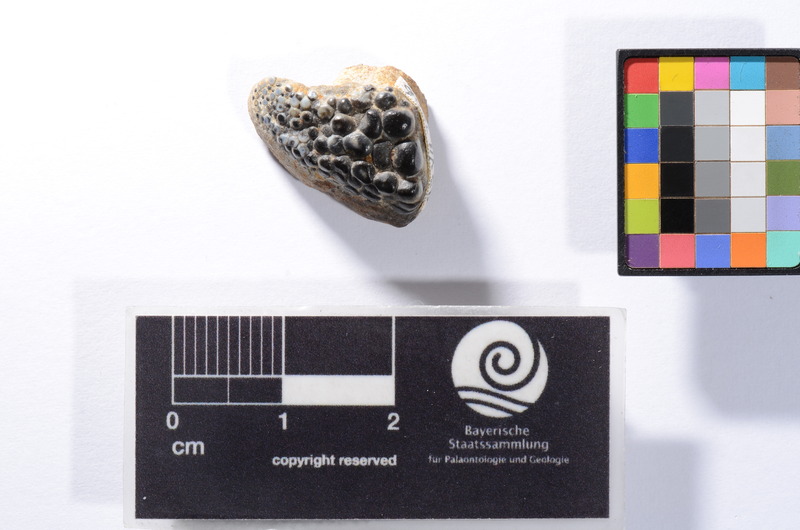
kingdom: Animalia
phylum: Chordata
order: Perciformes
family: Labridae
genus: Labrodon
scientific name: Labrodon
